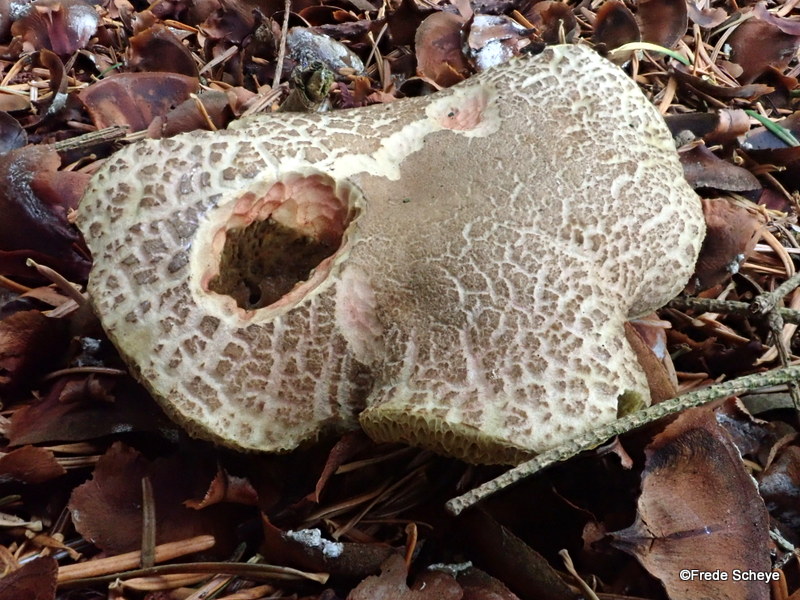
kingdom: Fungi
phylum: Basidiomycota
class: Agaricomycetes
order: Boletales
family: Boletaceae
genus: Xerocomellus
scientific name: Xerocomellus chrysenteron
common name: rødsprukken rørhat
